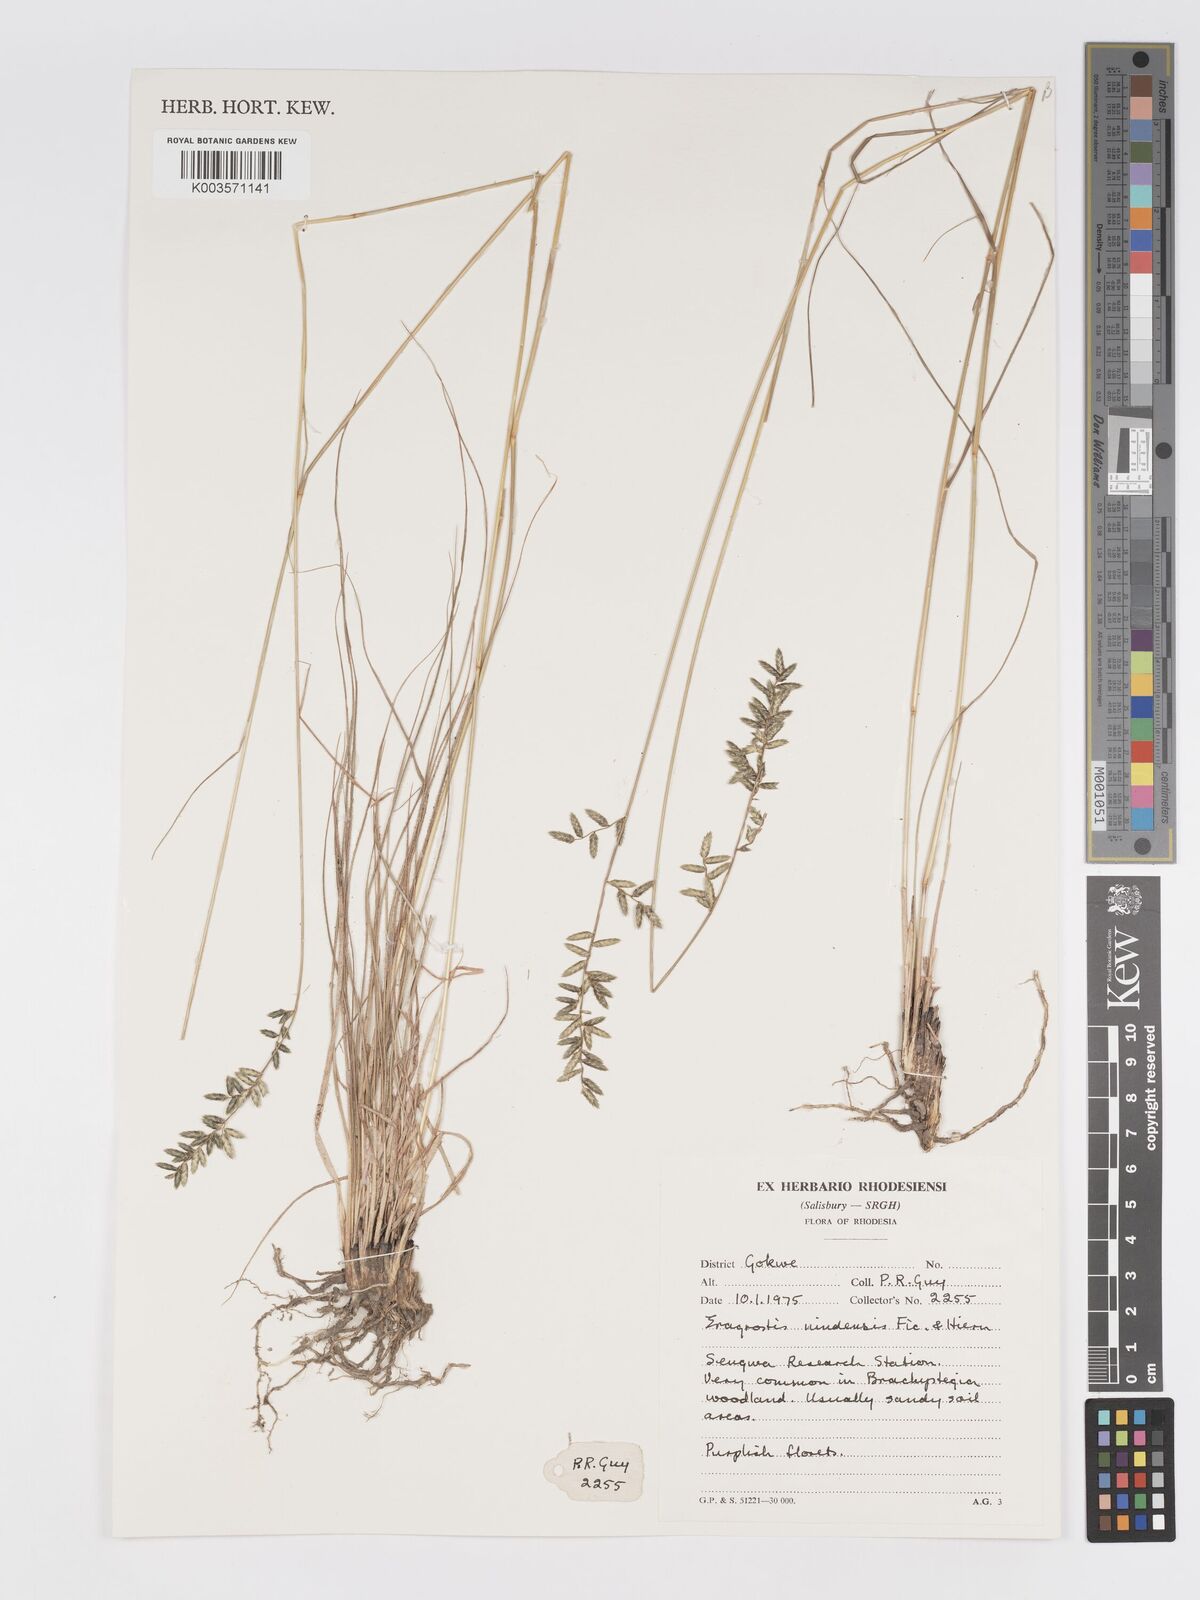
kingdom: Plantae
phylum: Tracheophyta
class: Liliopsida
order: Poales
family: Poaceae
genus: Eragrostis
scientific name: Eragrostis nindensis
